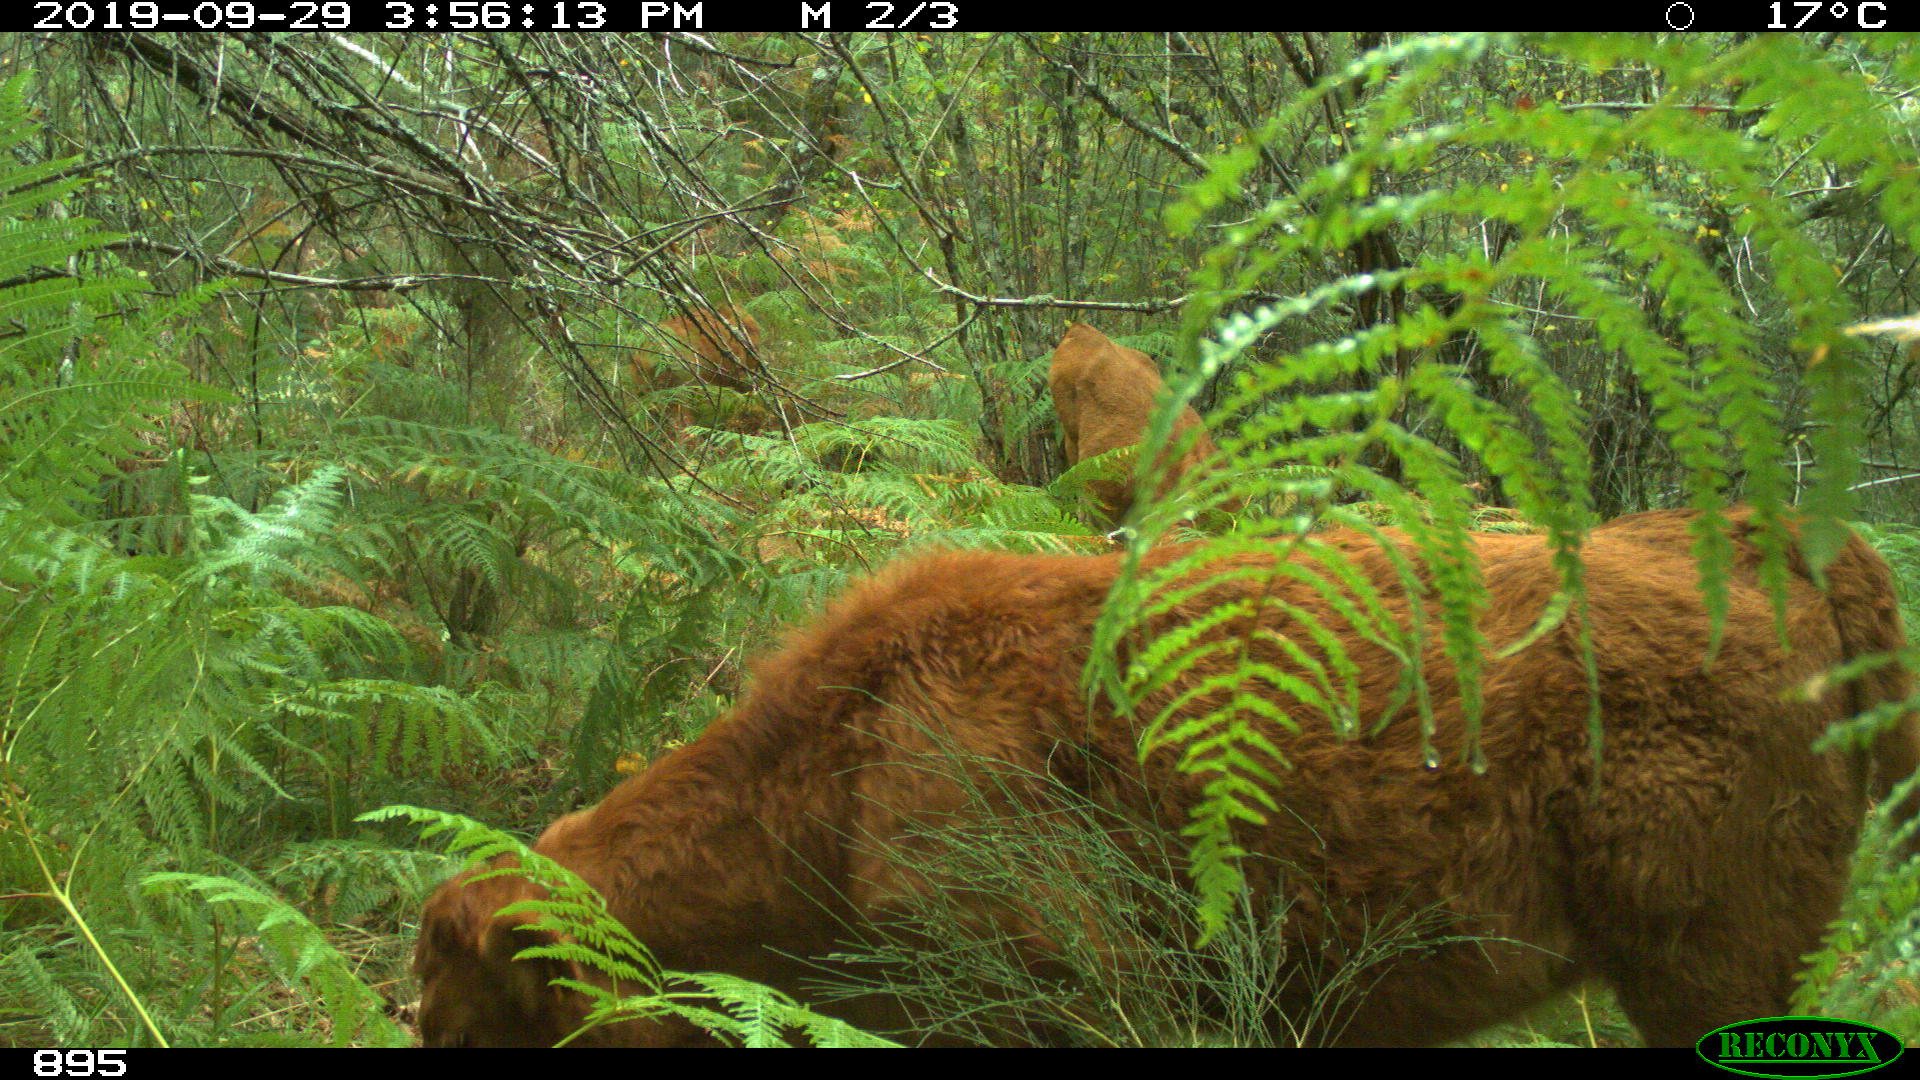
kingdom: Animalia
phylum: Chordata
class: Mammalia
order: Artiodactyla
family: Bovidae
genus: Bos
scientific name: Bos taurus
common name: Domesticated cattle
